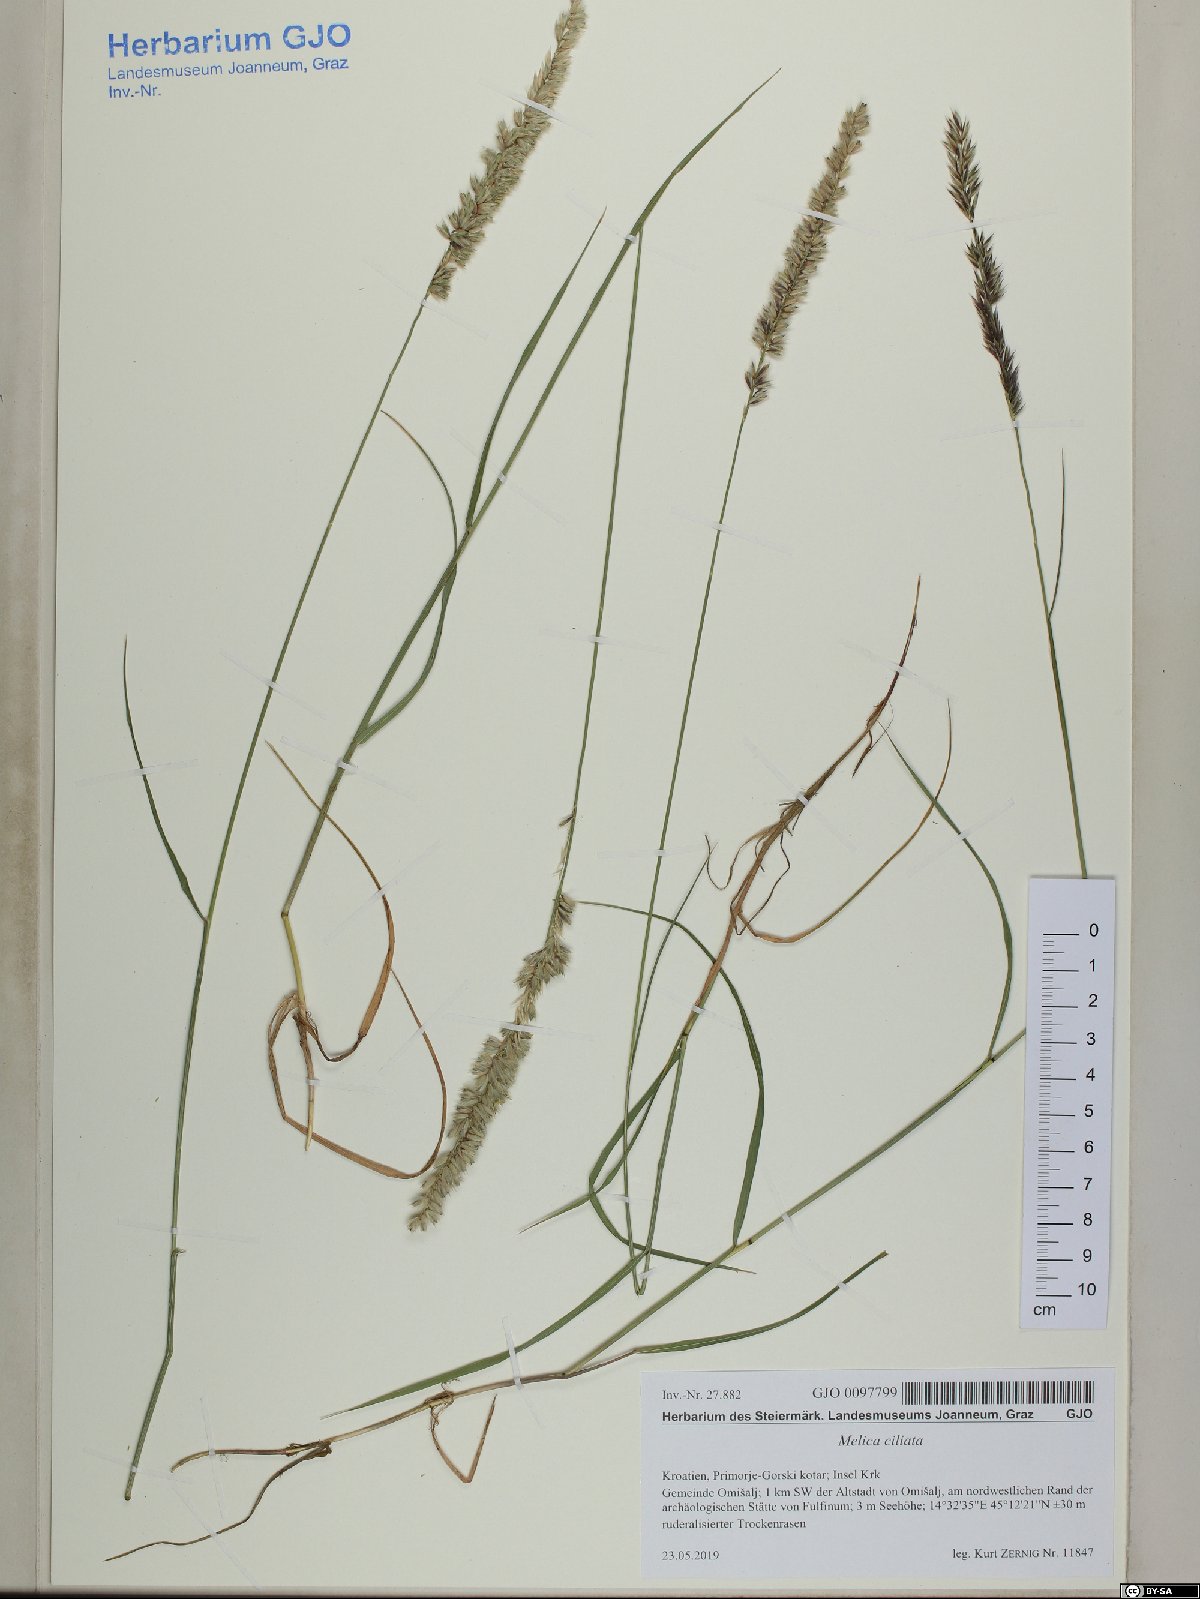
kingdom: Plantae
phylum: Tracheophyta
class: Liliopsida
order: Poales
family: Poaceae
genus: Melica
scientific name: Melica ciliata
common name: Hairy melicgrass
